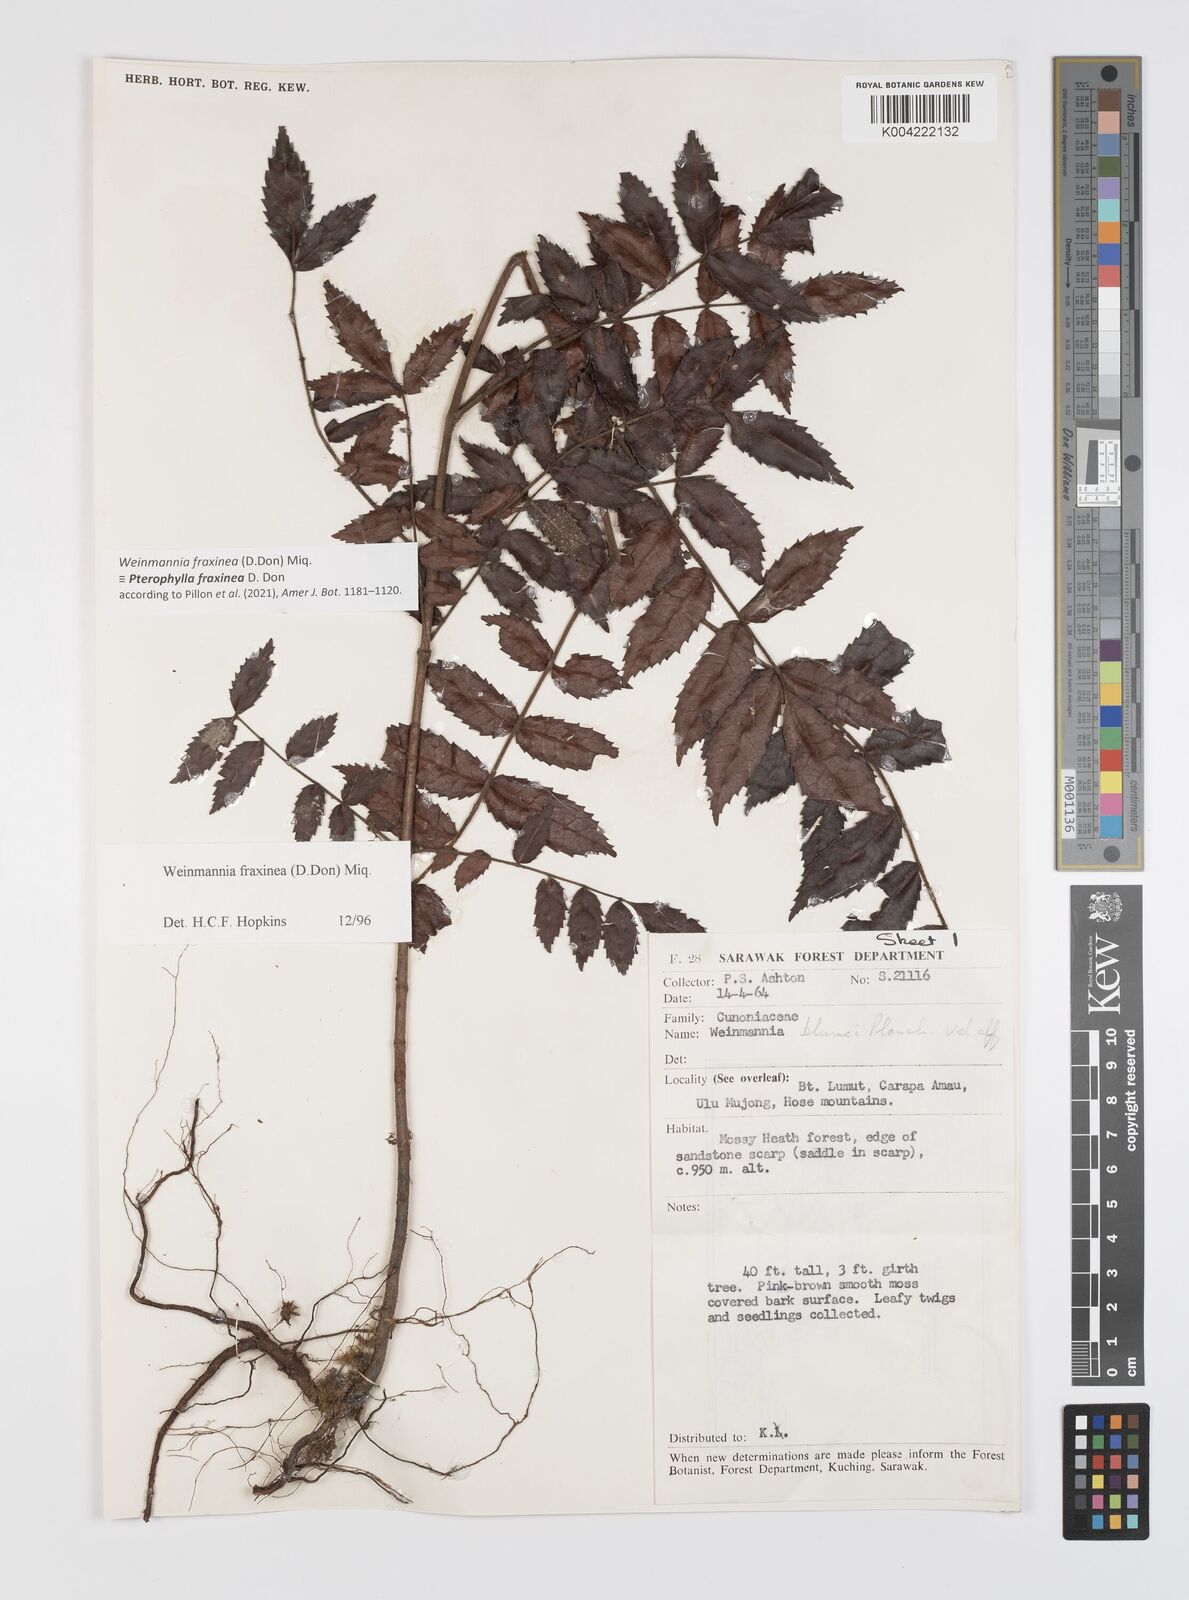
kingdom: Plantae
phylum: Tracheophyta
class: Magnoliopsida
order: Oxalidales
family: Cunoniaceae
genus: Pterophylla
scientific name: Pterophylla fraxinea
